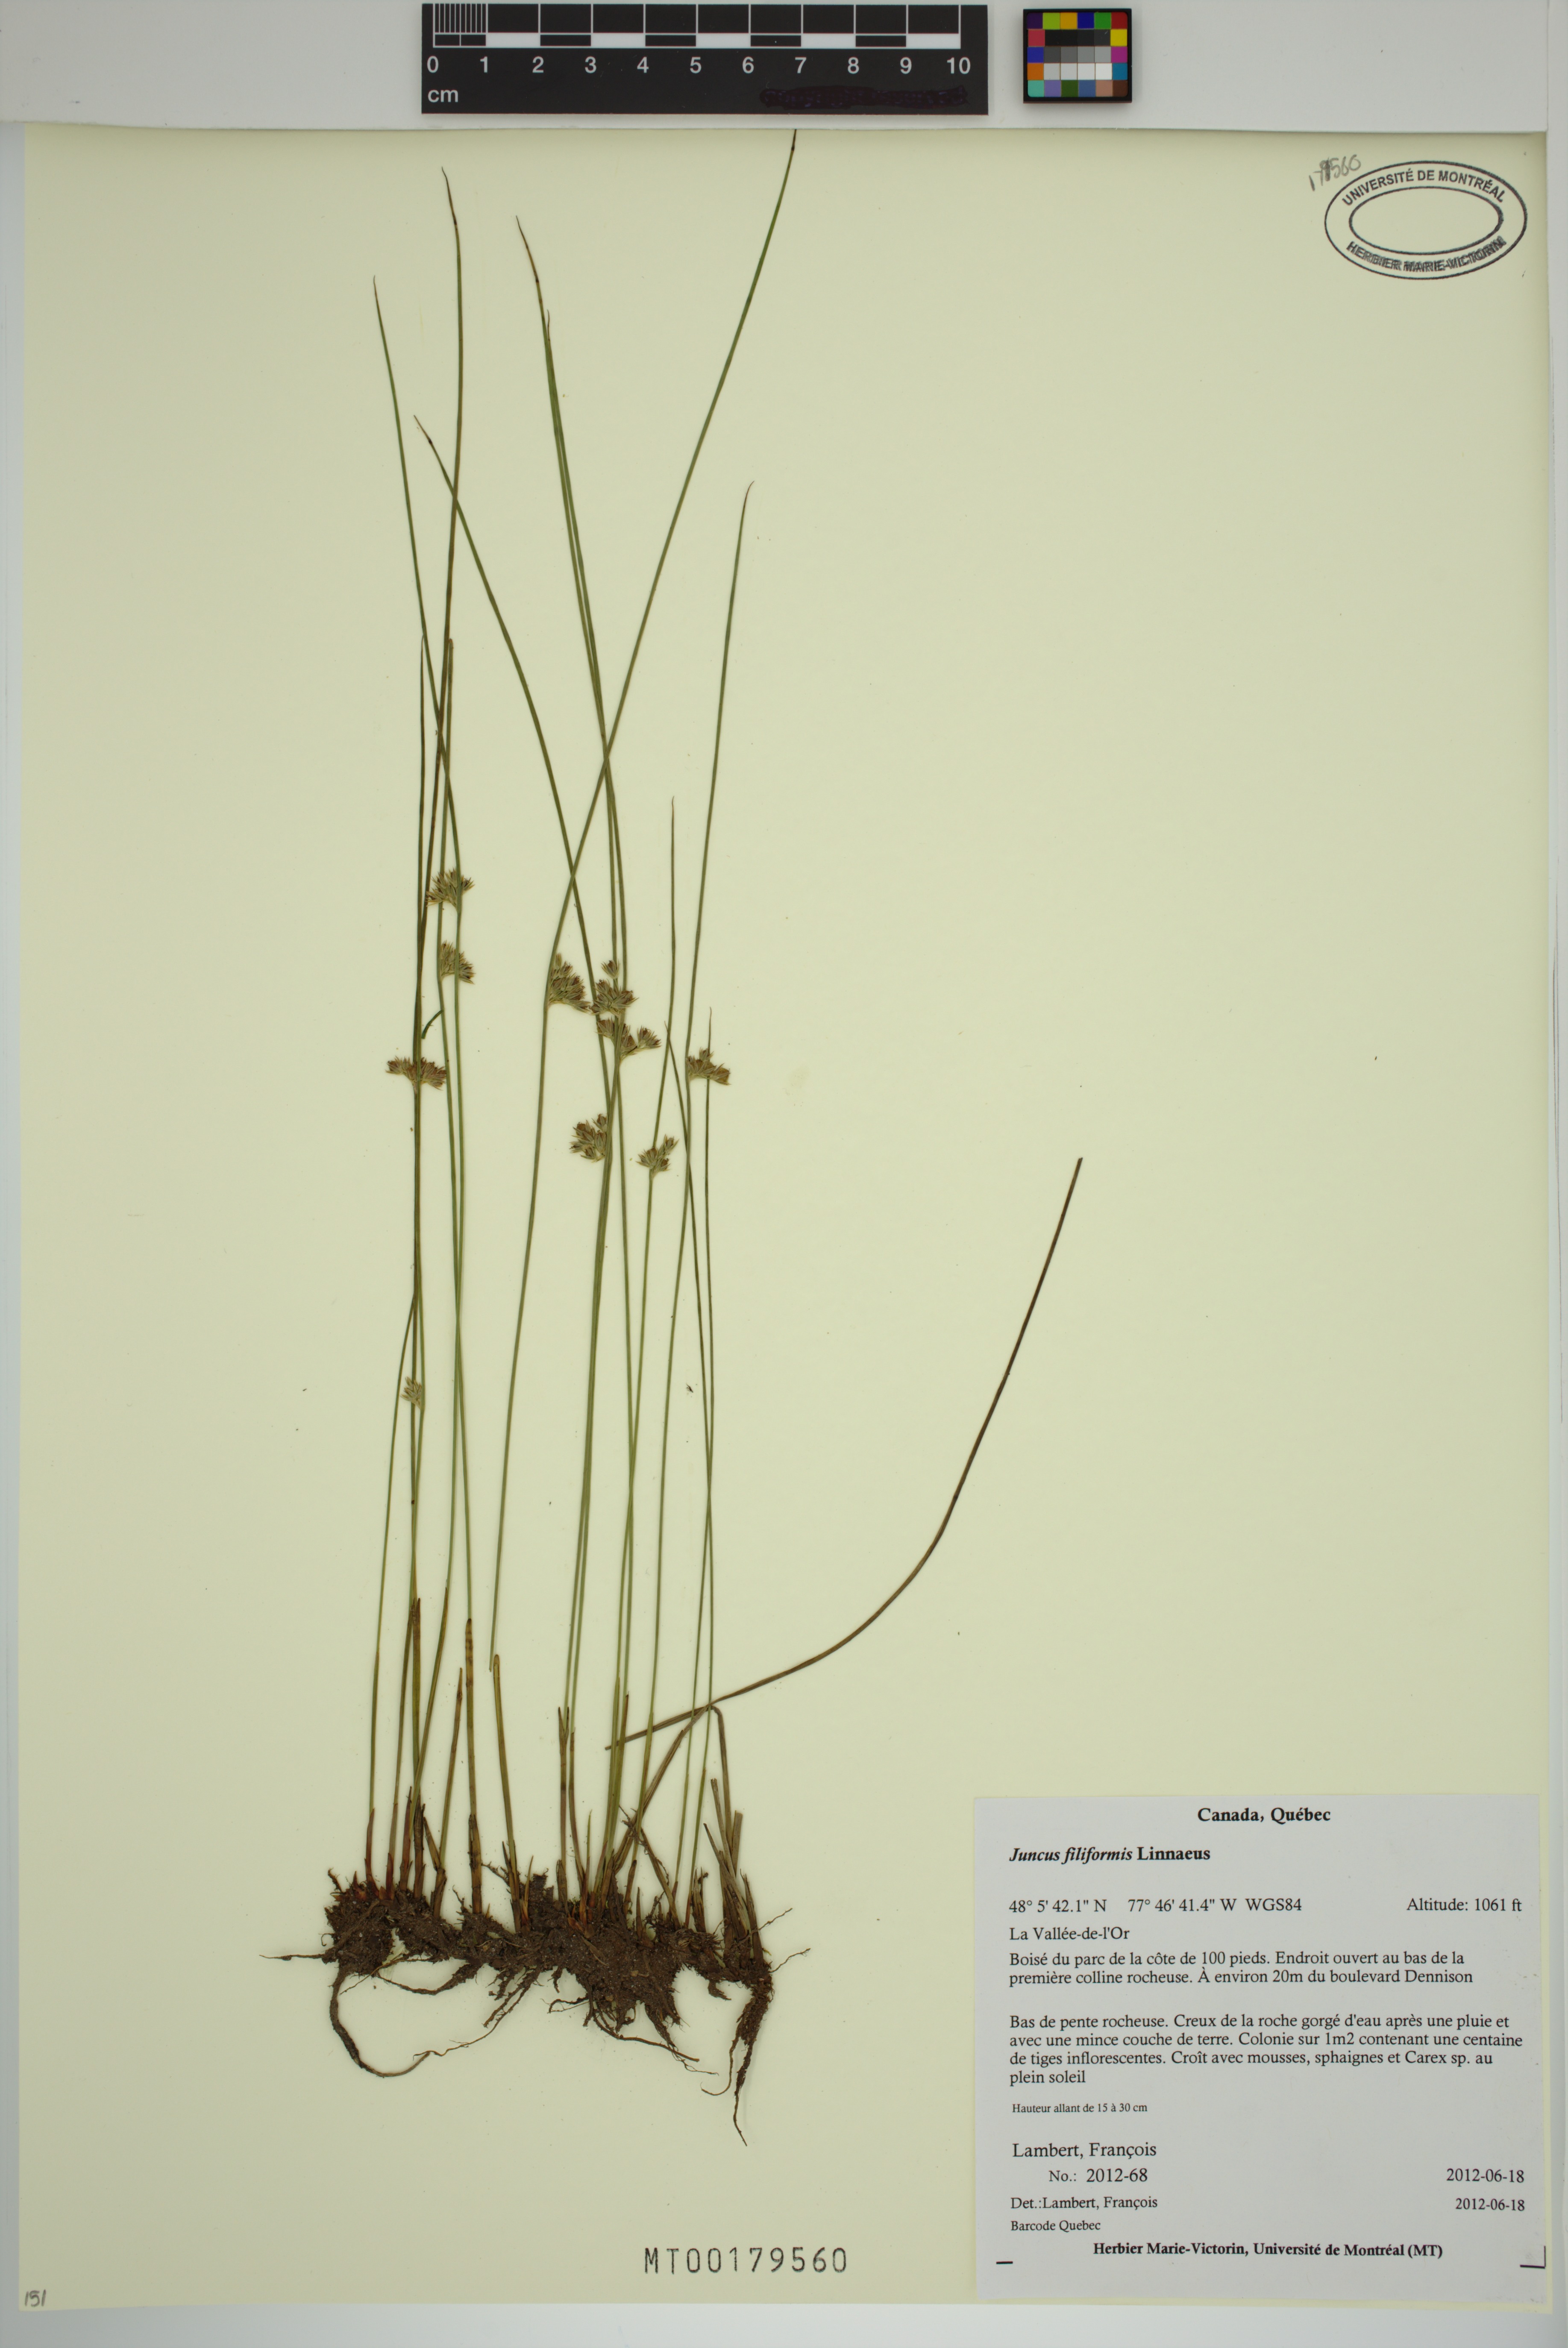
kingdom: Plantae
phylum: Tracheophyta
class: Liliopsida
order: Poales
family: Juncaceae
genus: Juncus
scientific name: Juncus filiformis
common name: Thread rush
